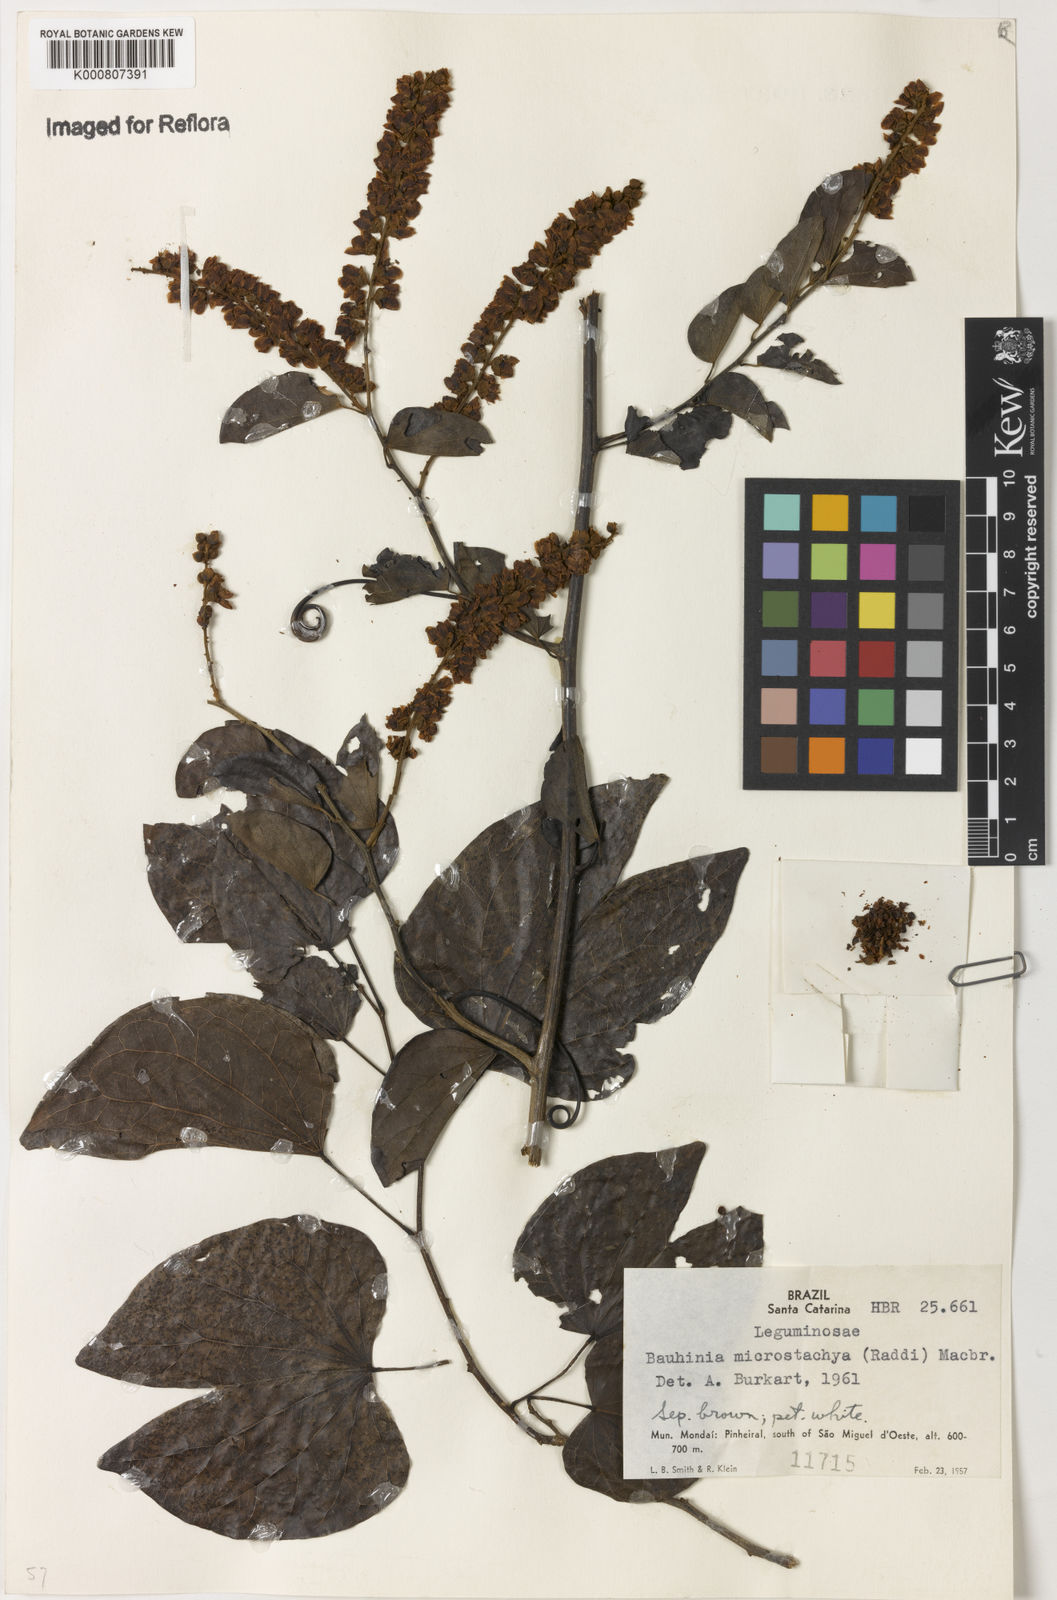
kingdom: Plantae
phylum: Tracheophyta
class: Magnoliopsida
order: Fabales
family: Fabaceae
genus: Schnella
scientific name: Schnella microstachya
